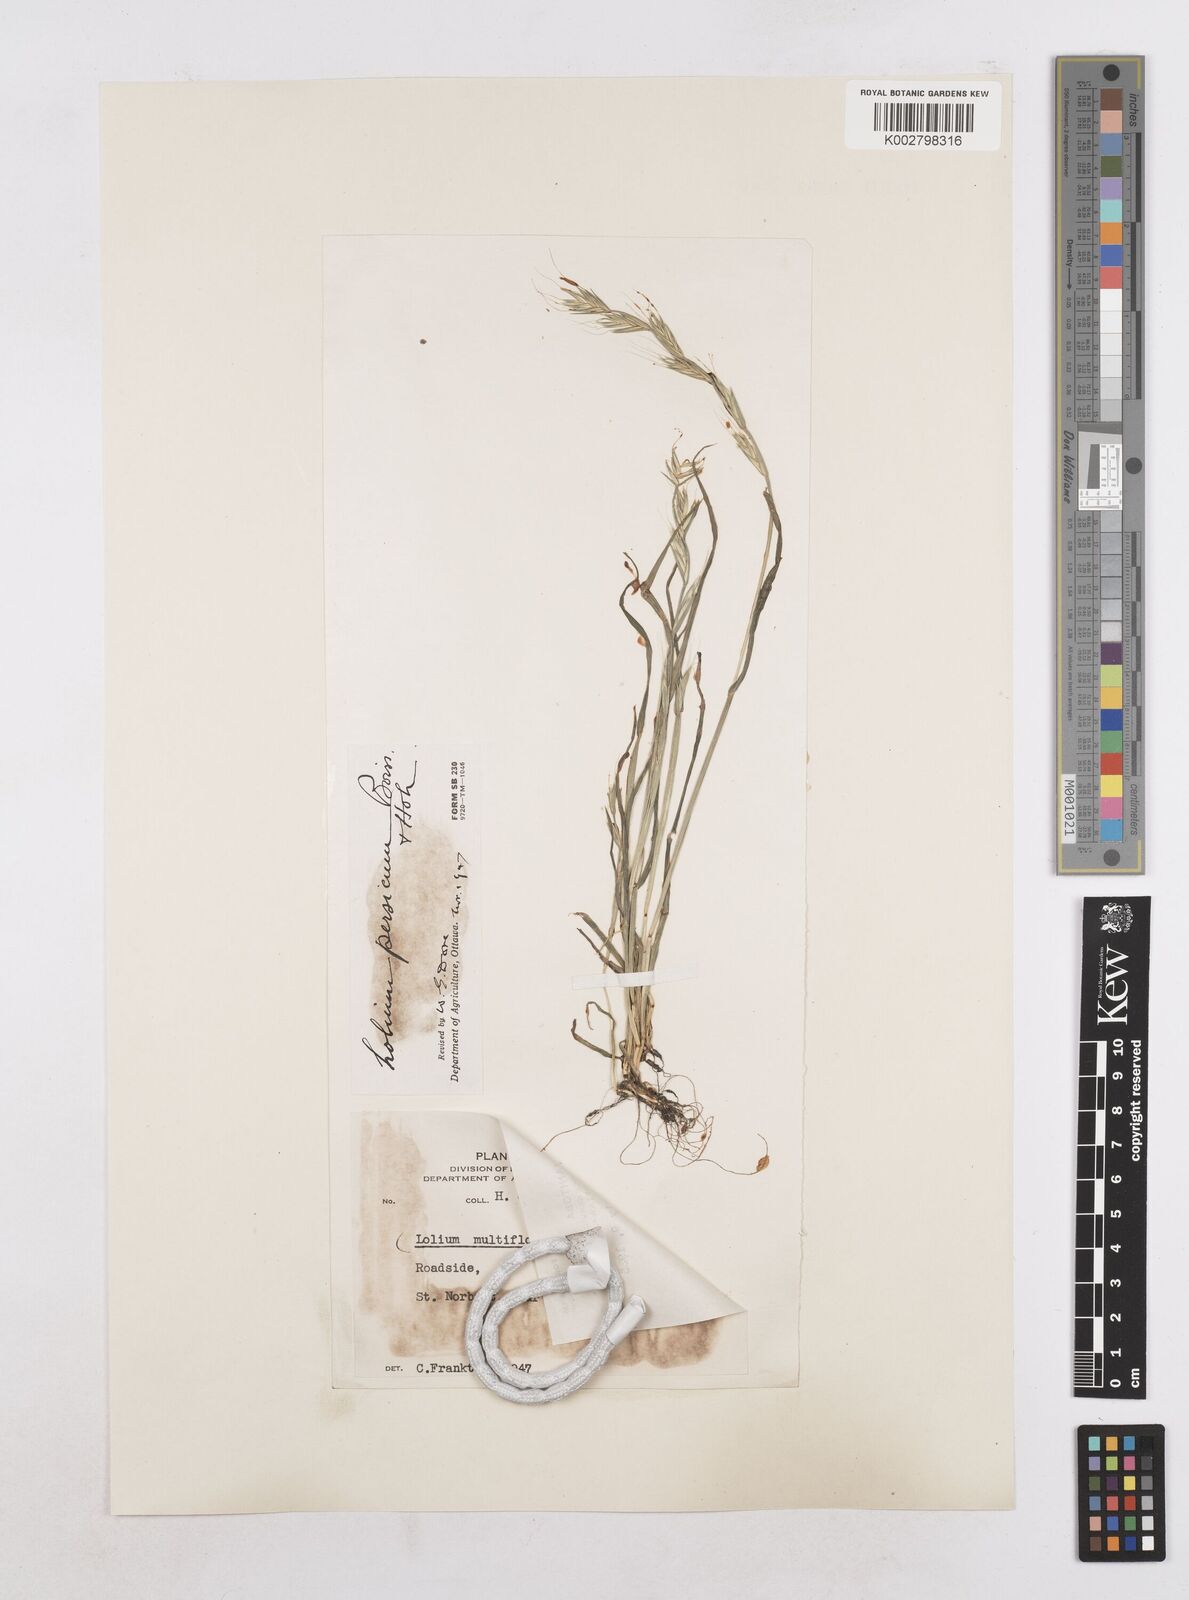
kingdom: Plantae
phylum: Tracheophyta
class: Liliopsida
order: Poales
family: Poaceae
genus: Lolium
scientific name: Lolium persicum
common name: Persian ryegrass
